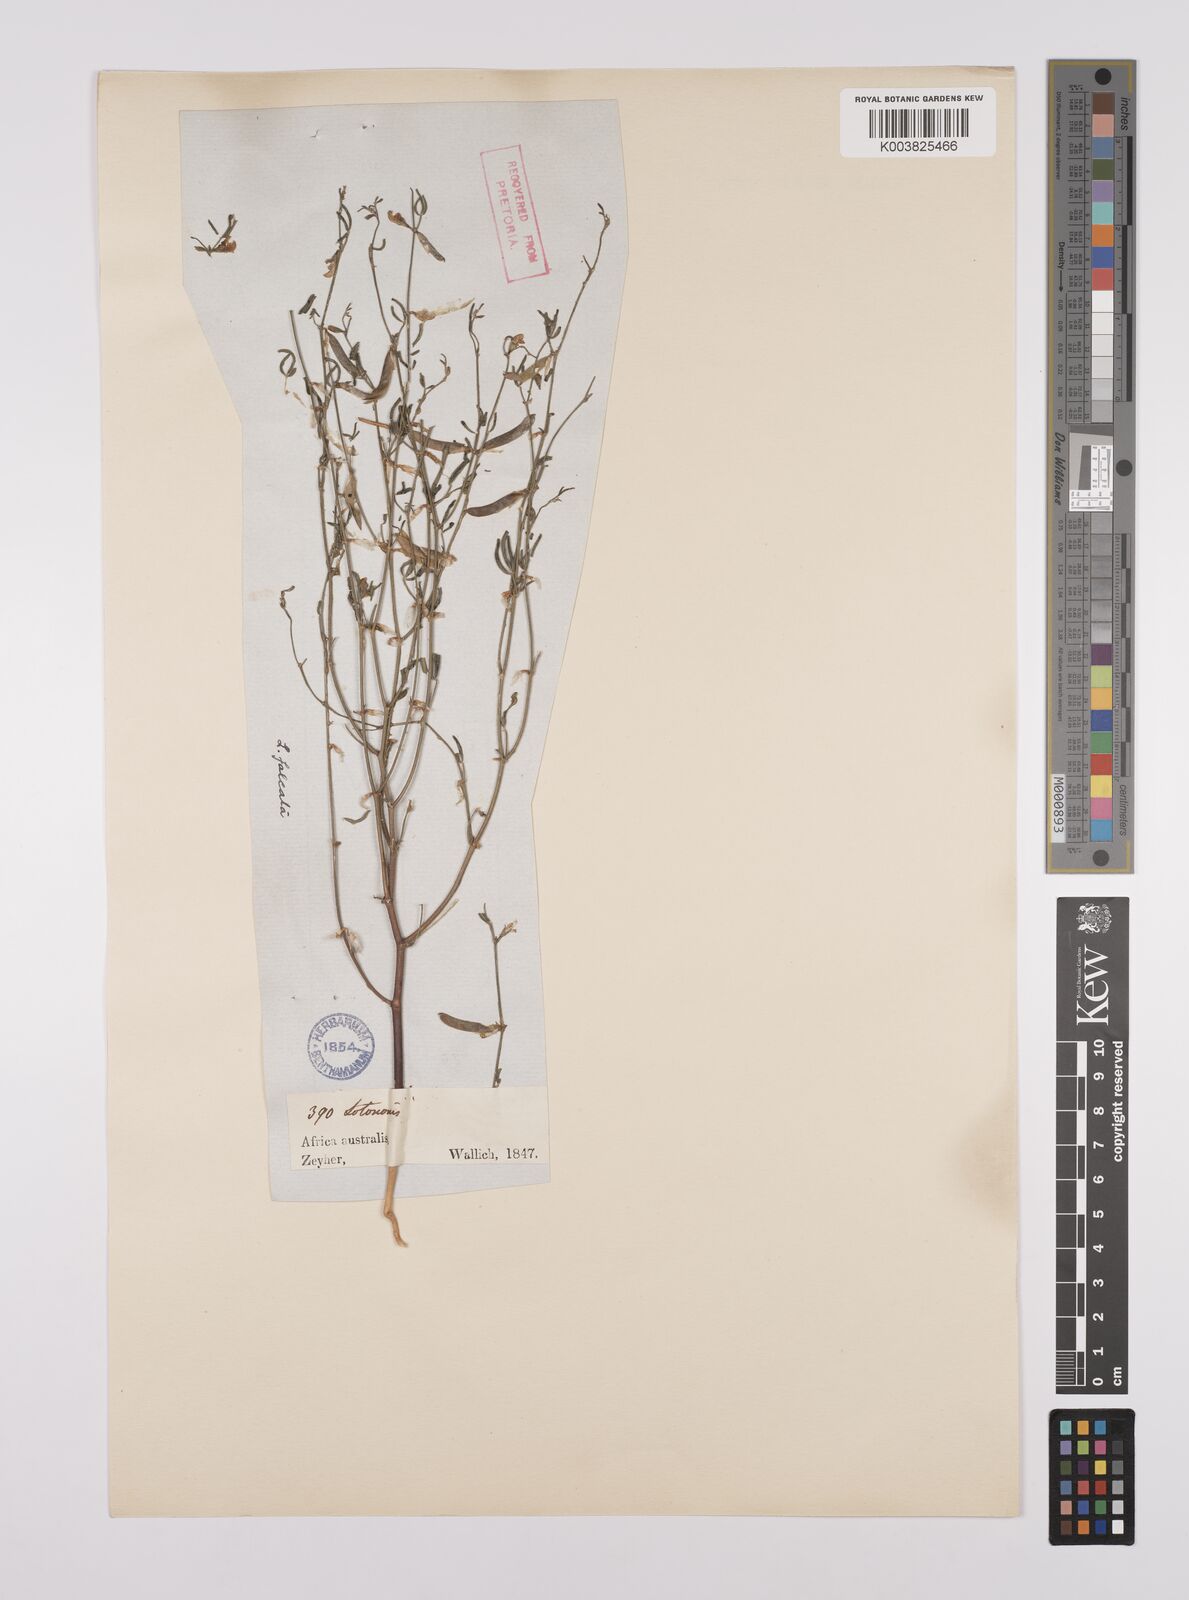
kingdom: Plantae
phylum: Tracheophyta
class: Magnoliopsida
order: Fabales
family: Fabaceae
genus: Lotononis
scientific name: Lotononis falcata
